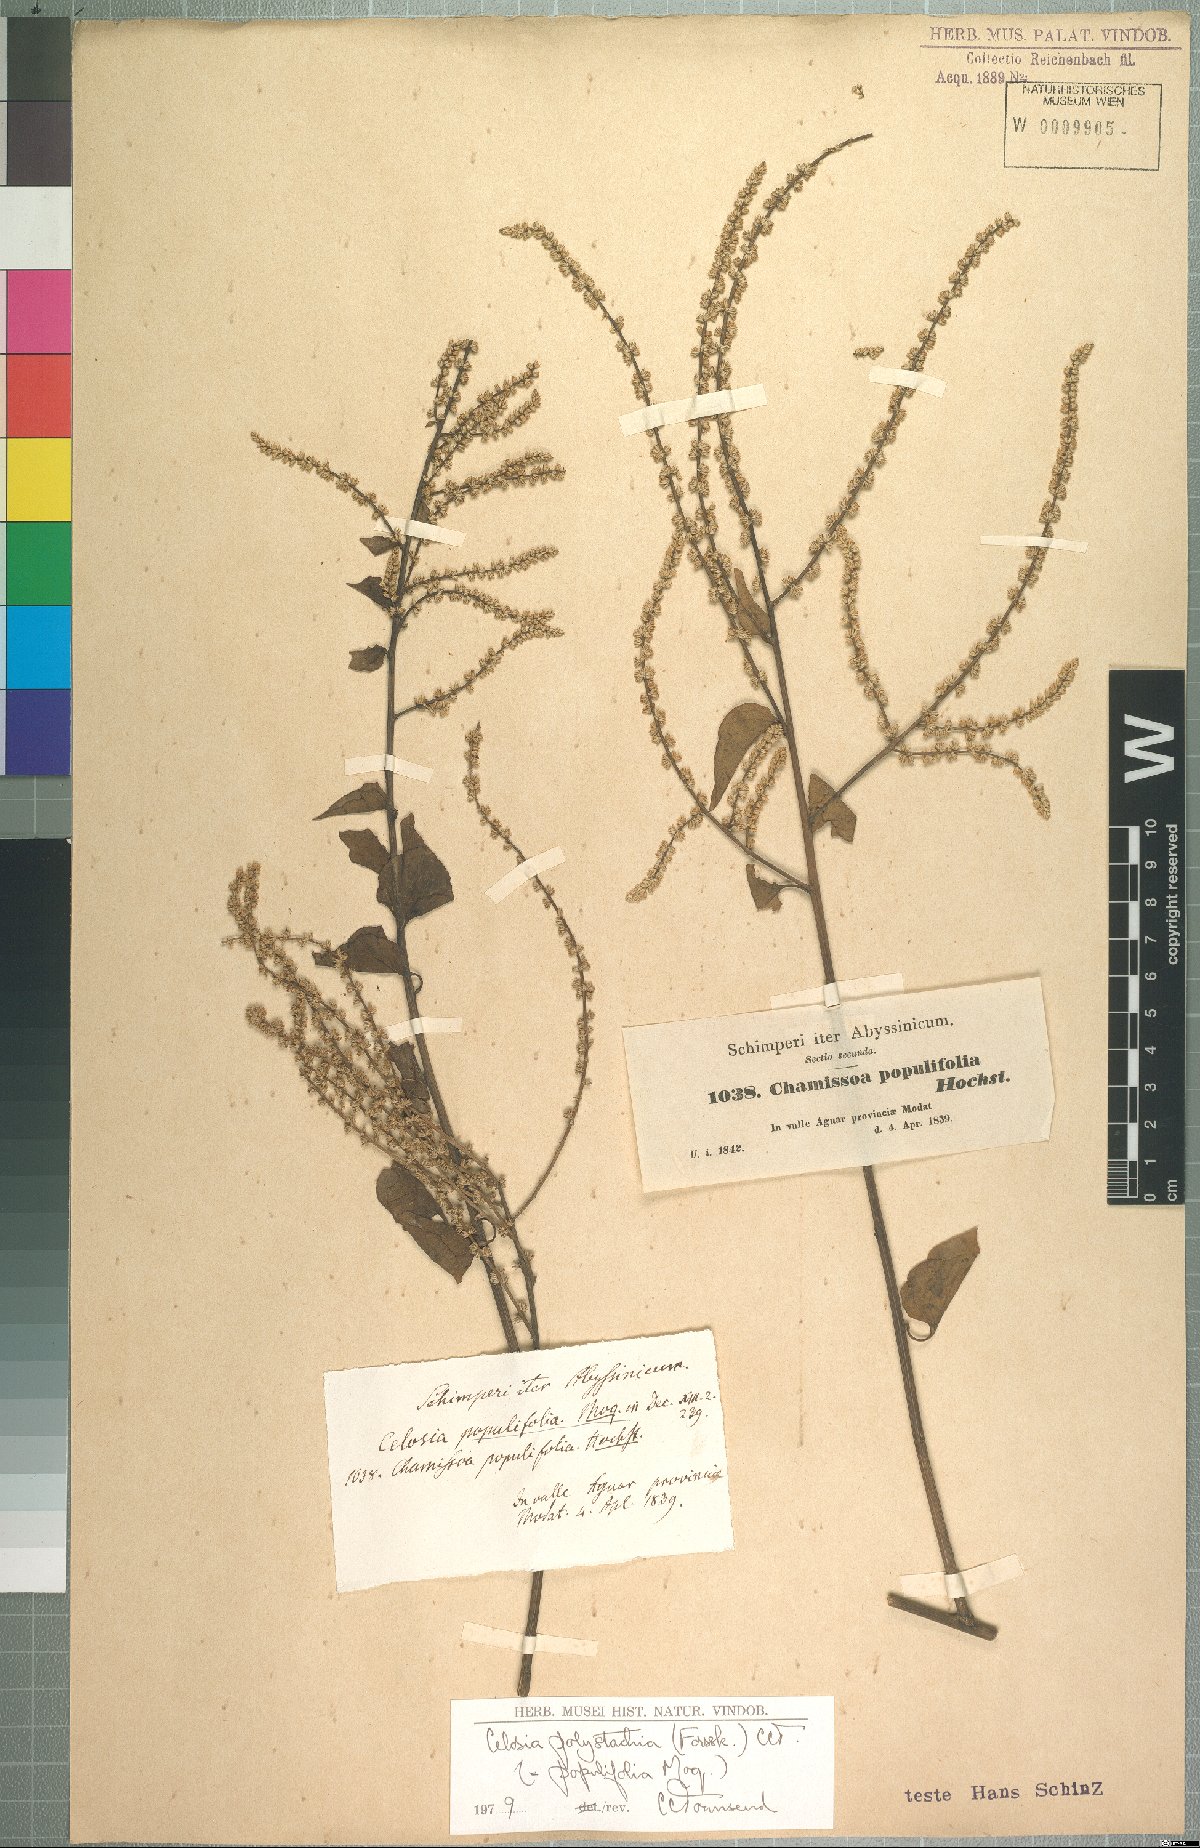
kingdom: Plantae
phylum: Tracheophyta
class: Magnoliopsida
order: Caryophyllales
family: Amaranthaceae
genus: Celosia
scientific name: Celosia polystachya
